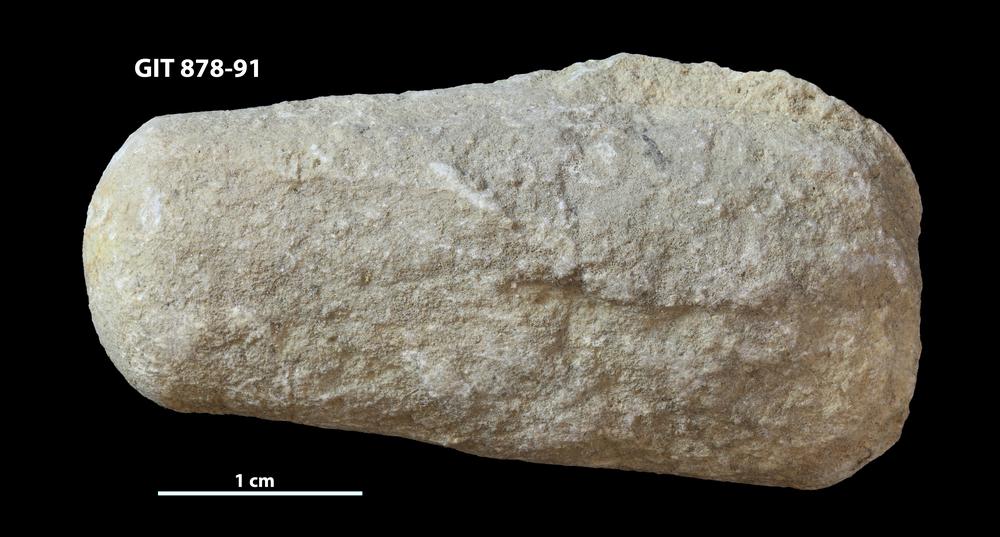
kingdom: Animalia
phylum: Mollusca
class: Cephalopoda
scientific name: Cephalopoda
